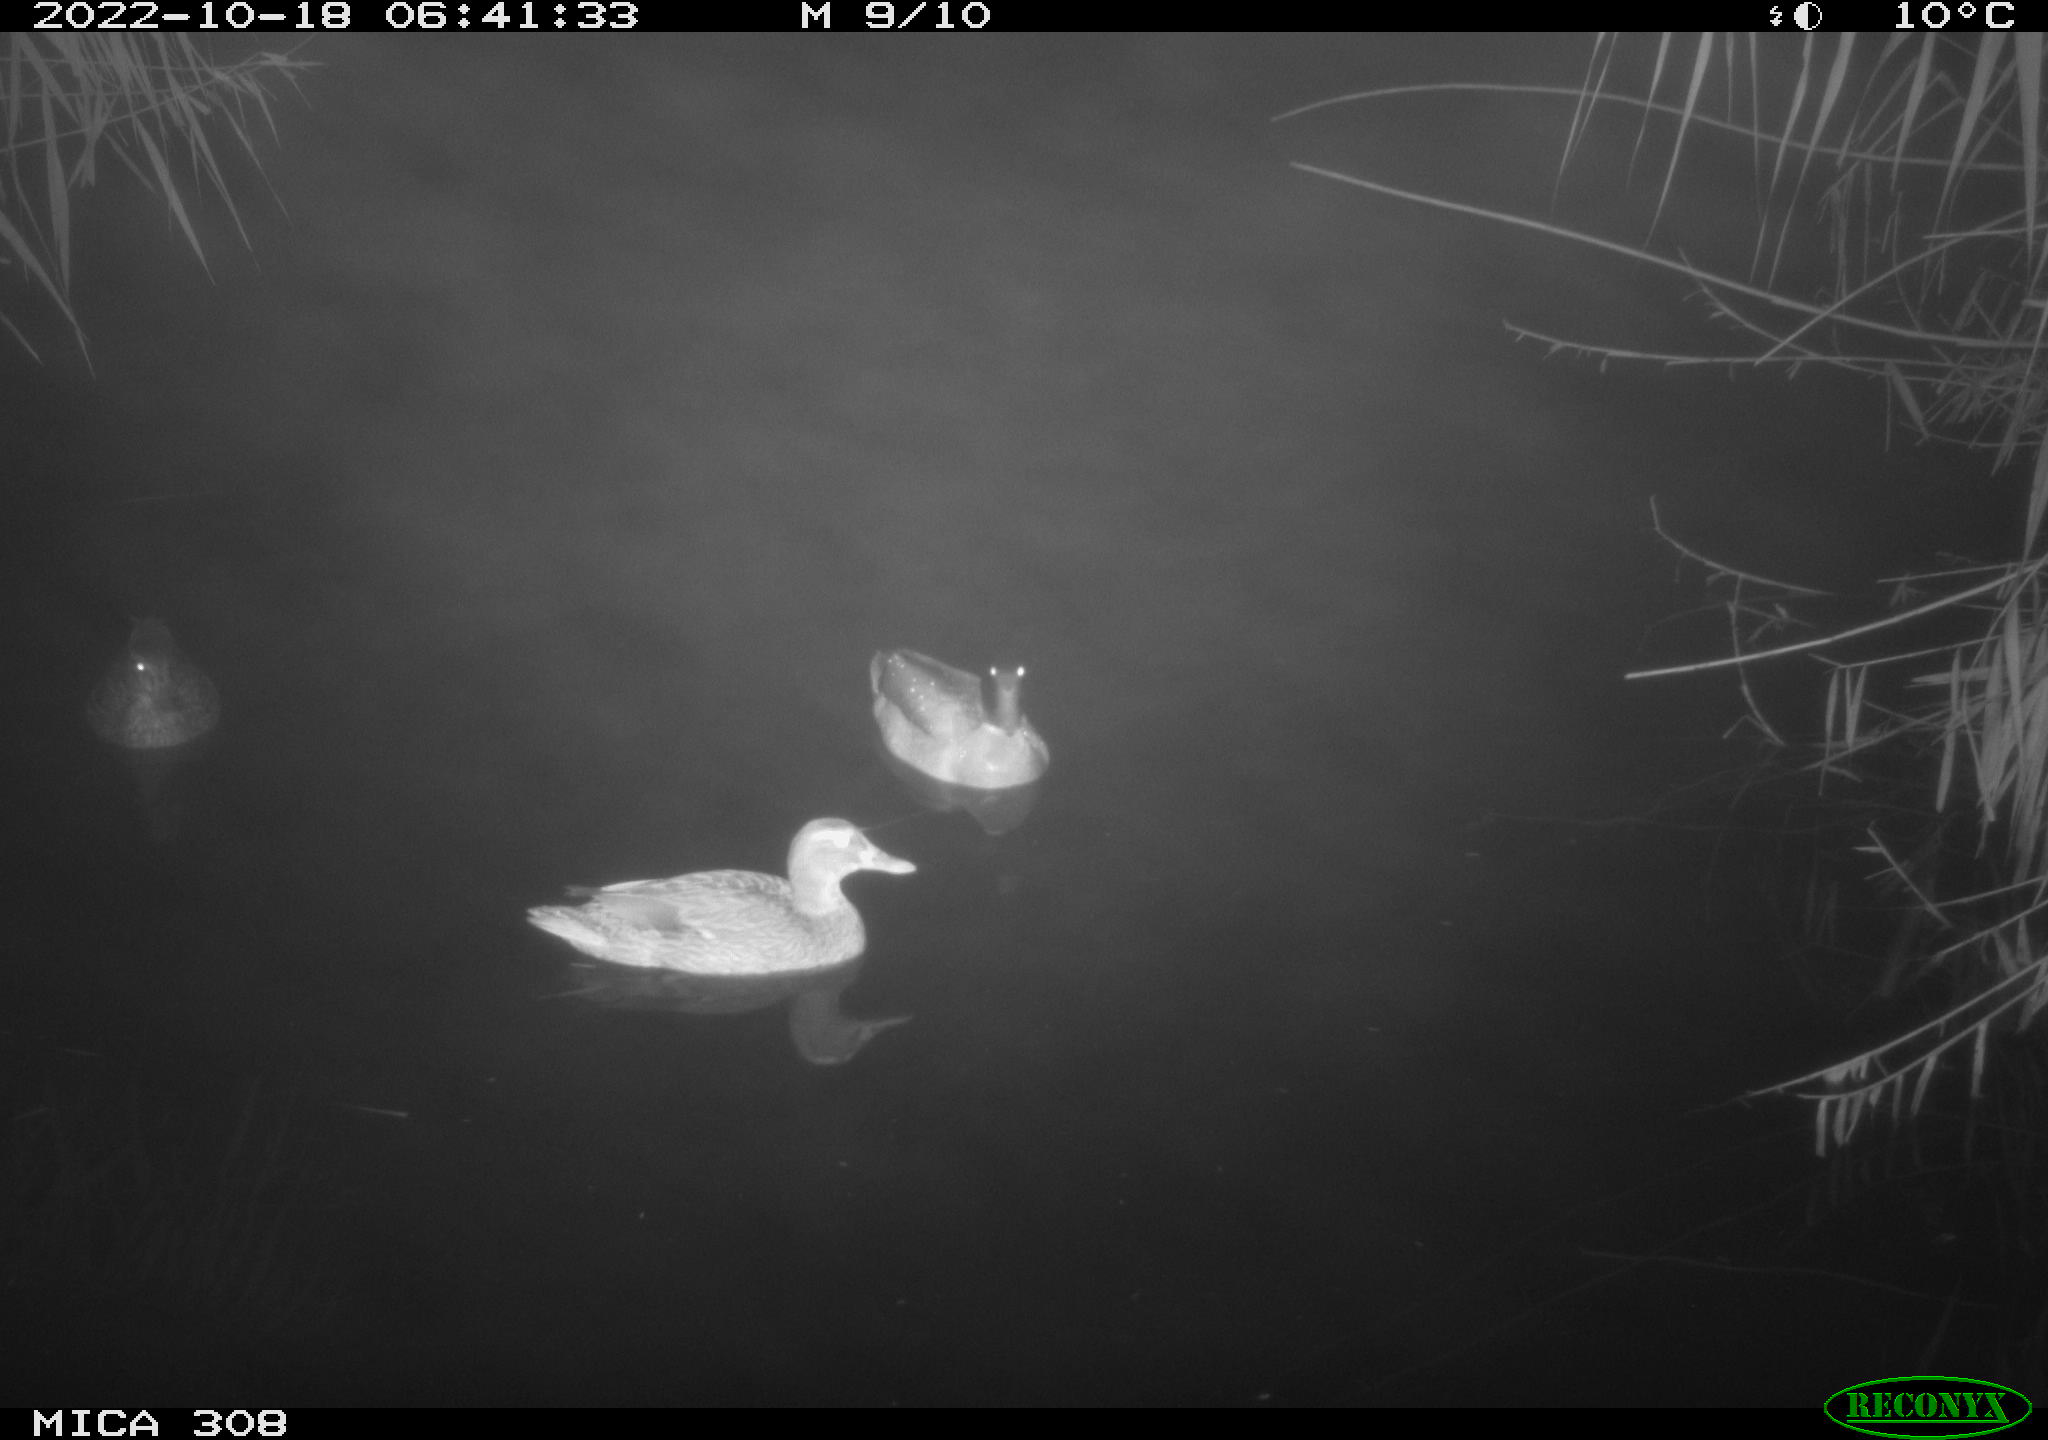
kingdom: Animalia
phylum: Chordata
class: Aves
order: Anseriformes
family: Anatidae
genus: Anas
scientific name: Anas
